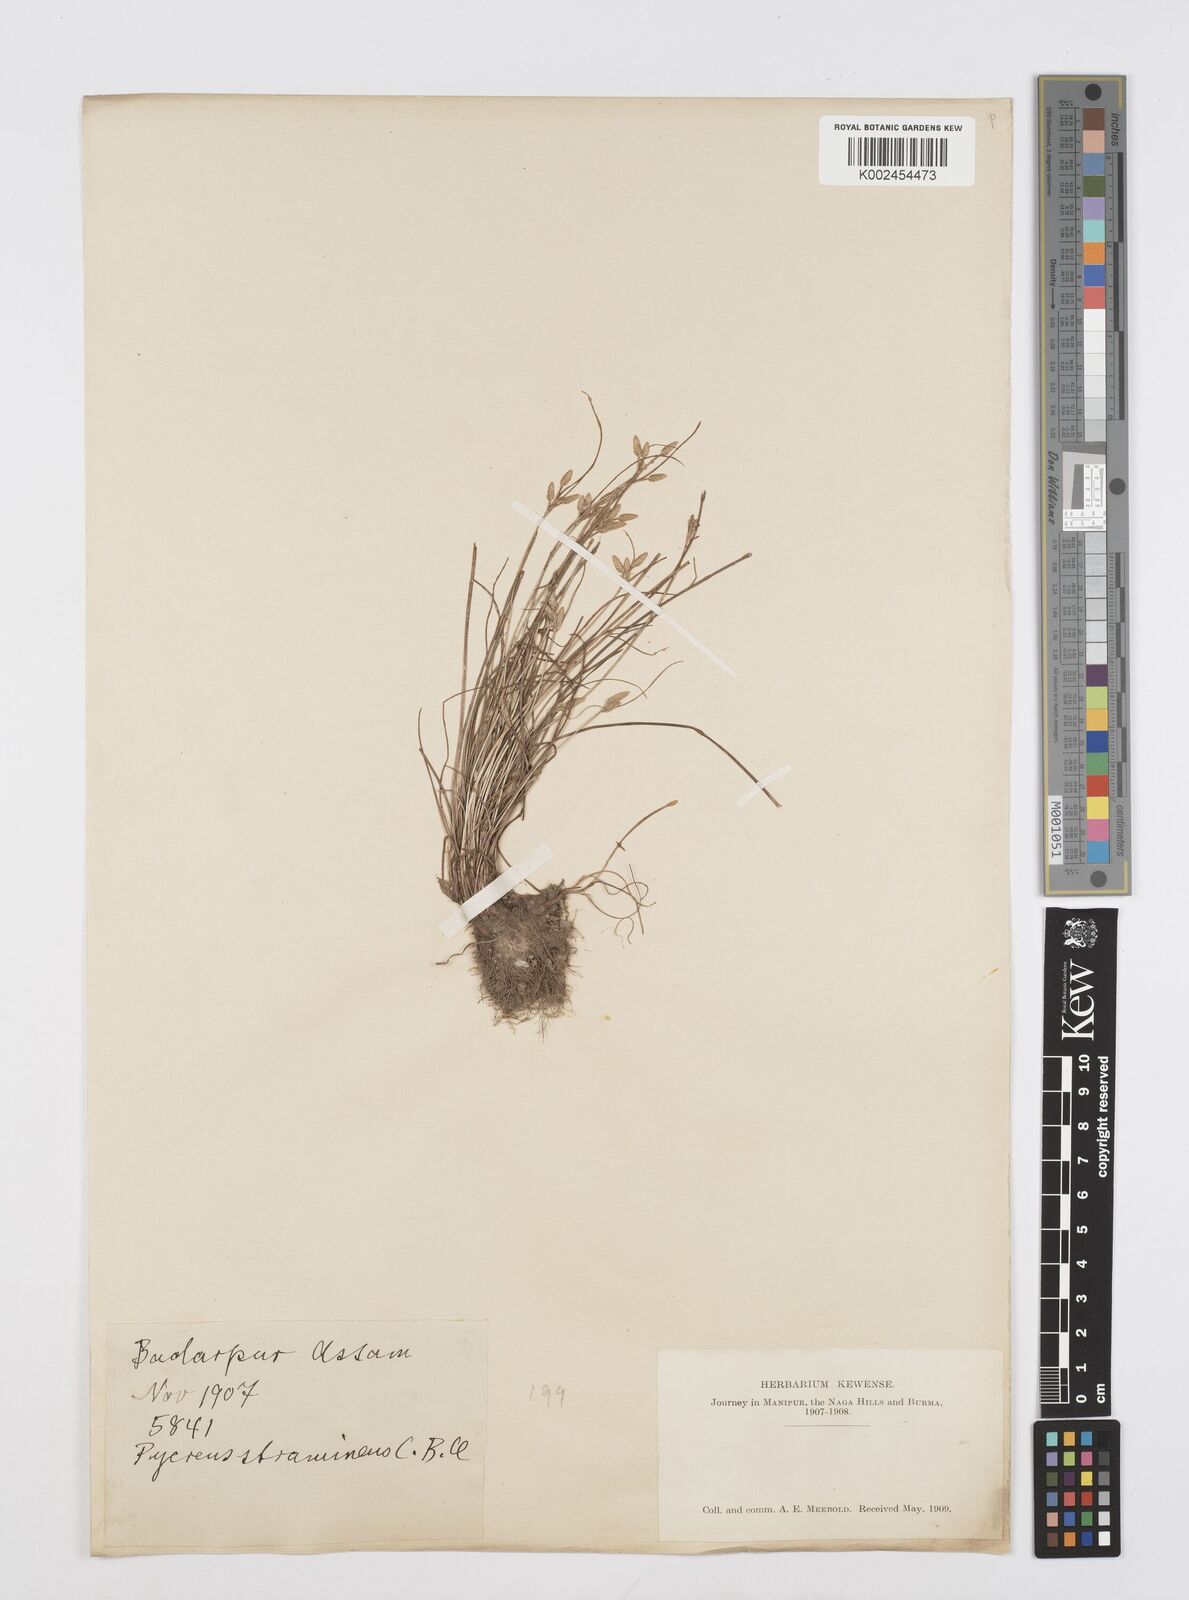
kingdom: Plantae
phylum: Tracheophyta
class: Liliopsida
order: Poales
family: Cyperaceae
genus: Cyperus
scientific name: Cyperus substramineus
